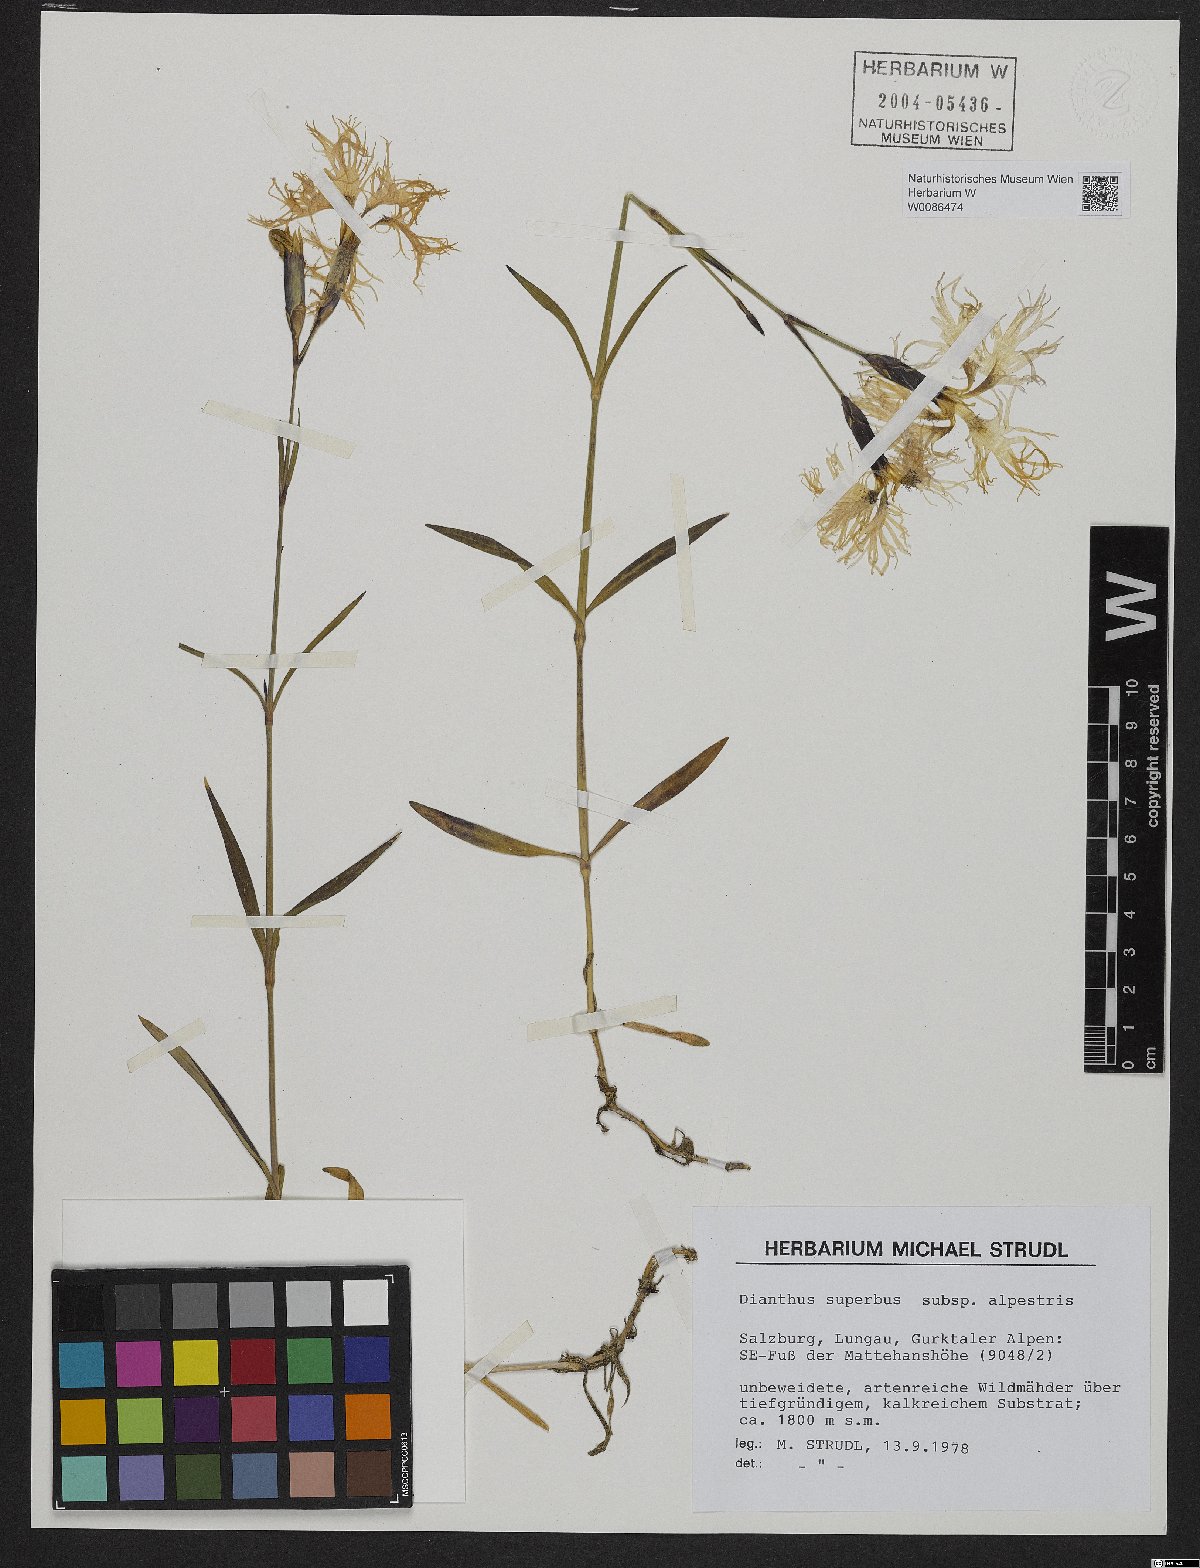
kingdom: Plantae
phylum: Tracheophyta
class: Magnoliopsida
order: Caryophyllales
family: Caryophyllaceae
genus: Dianthus
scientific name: Dianthus superbus
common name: Fringed pink
